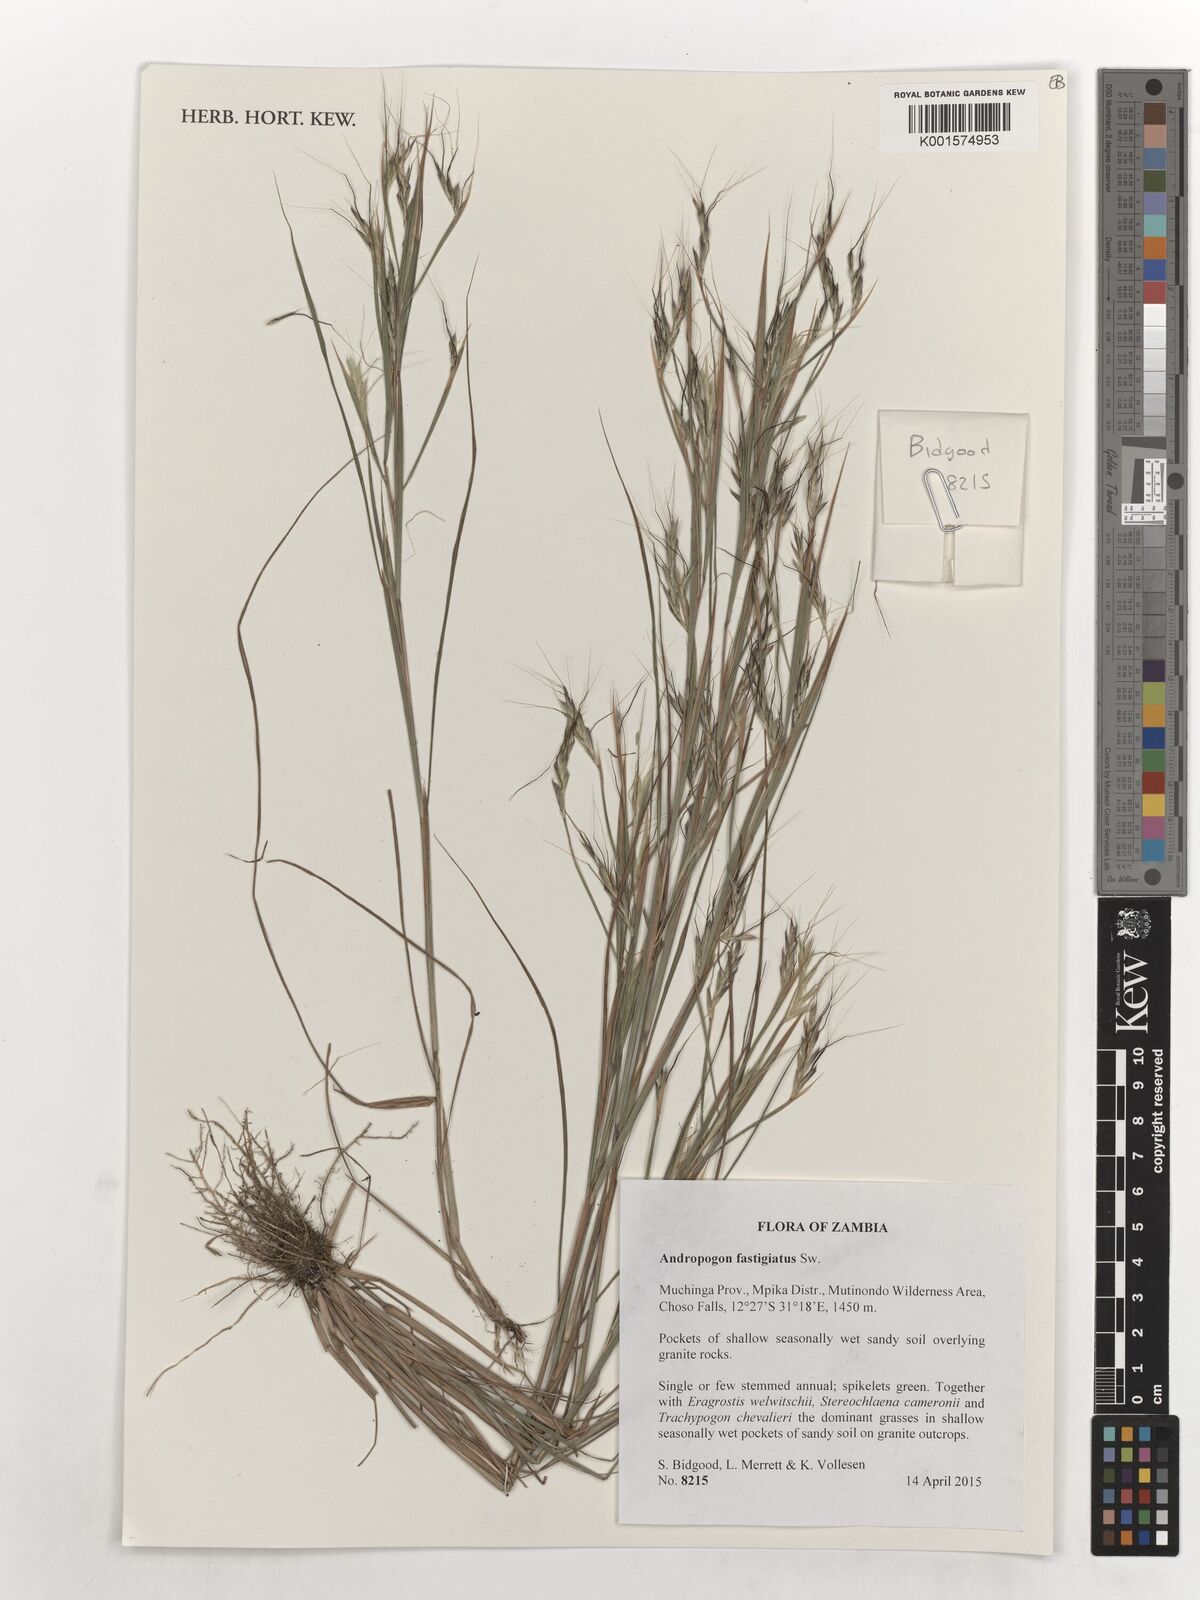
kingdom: Plantae
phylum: Tracheophyta
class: Liliopsida
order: Poales
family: Poaceae
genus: Diectomis
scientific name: Diectomis fastigiata
